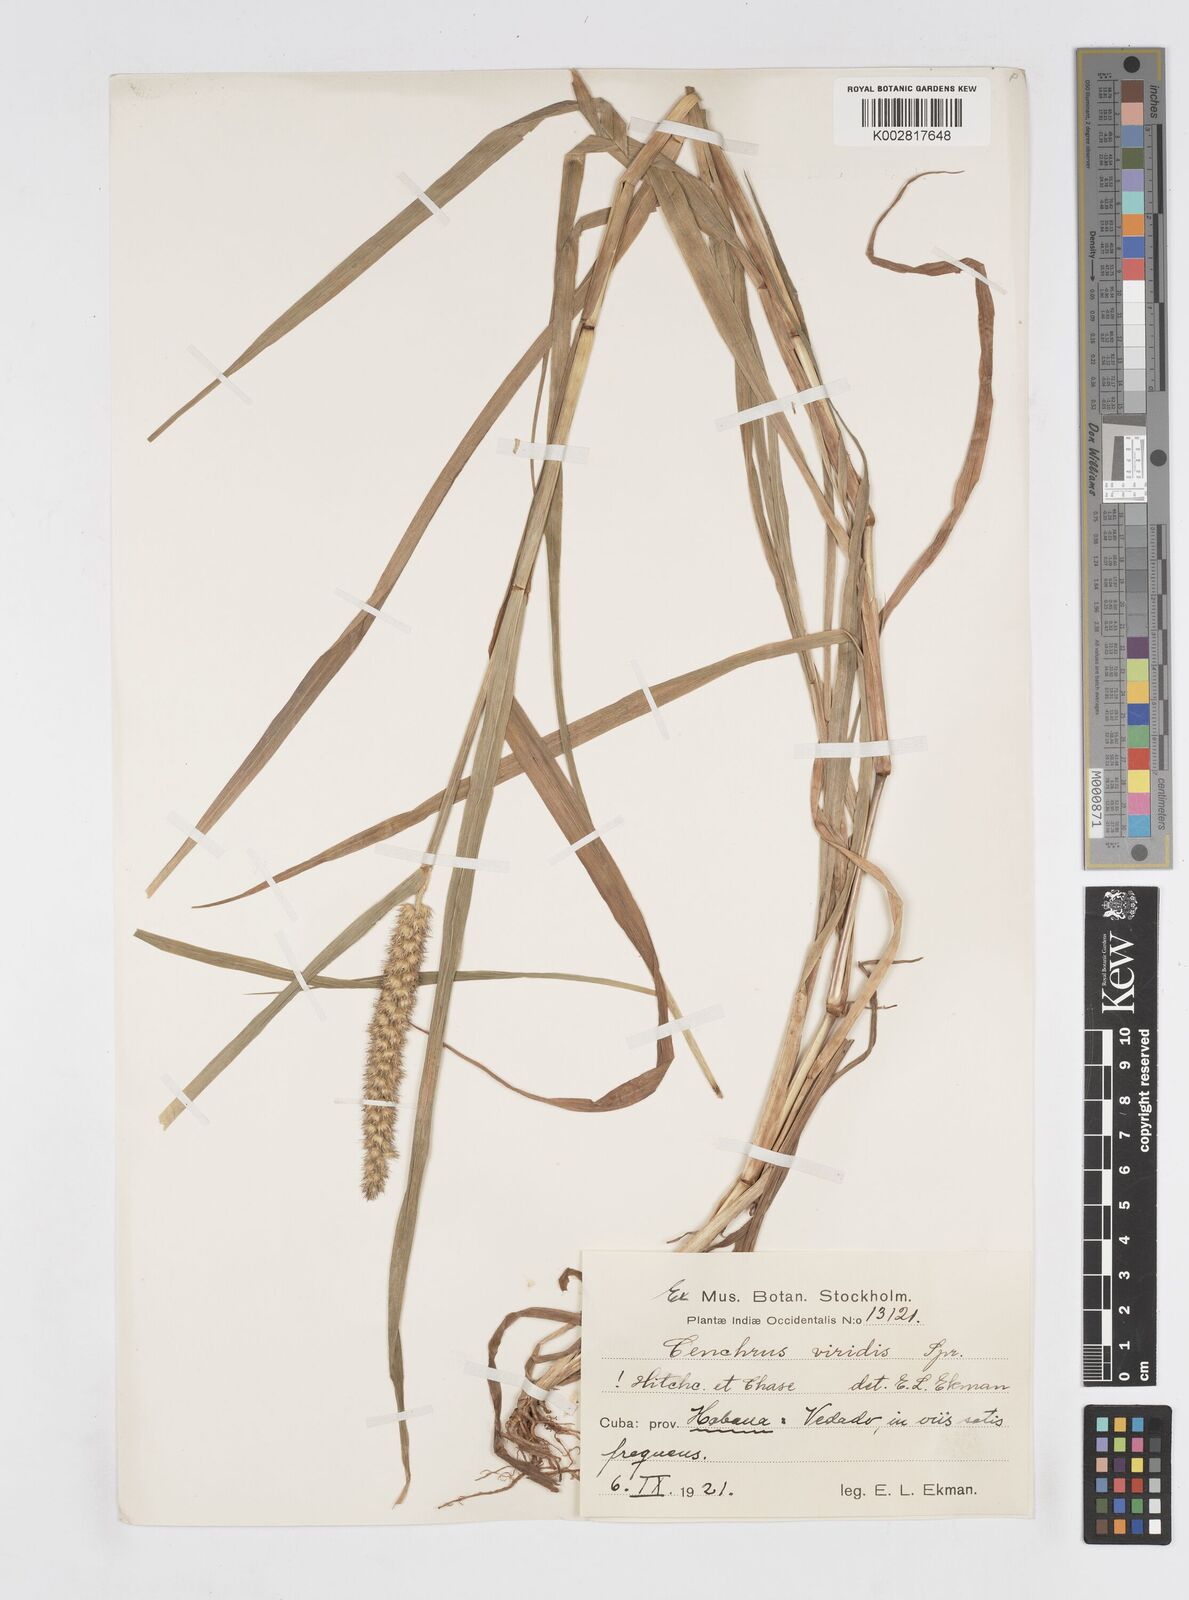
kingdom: Plantae
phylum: Tracheophyta
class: Liliopsida
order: Poales
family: Poaceae
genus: Cenchrus
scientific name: Cenchrus brownii
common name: Slim-bristle sandbur
